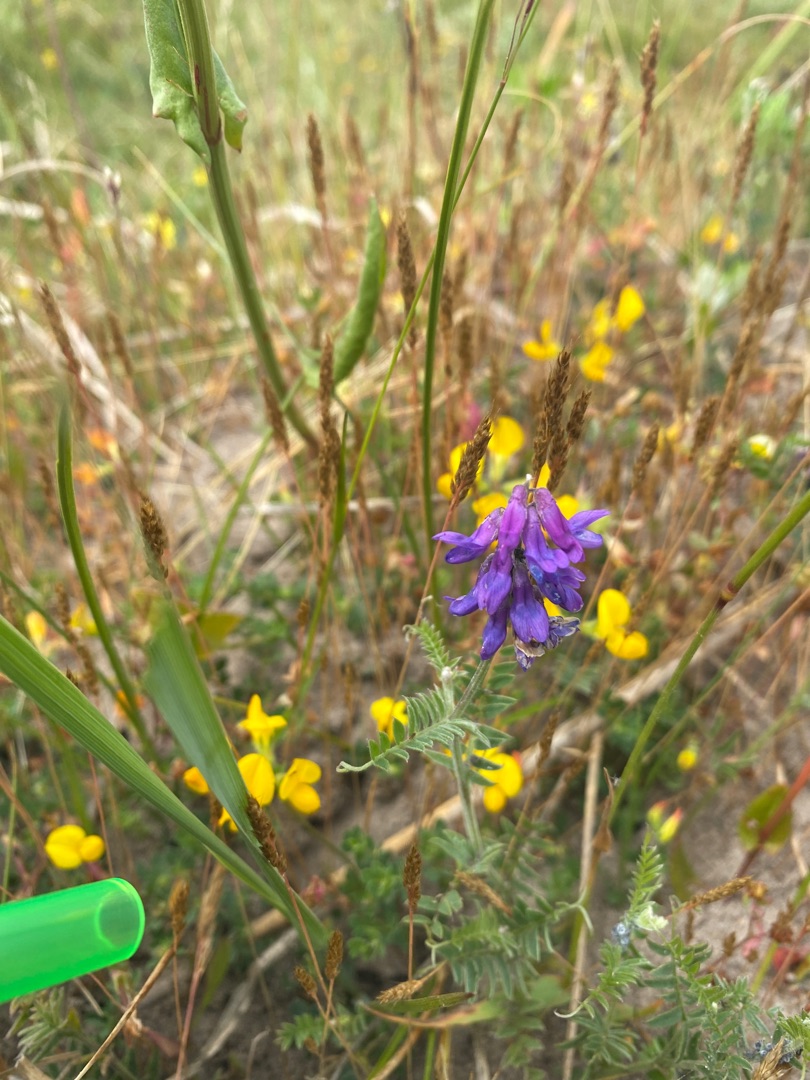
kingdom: Plantae
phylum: Tracheophyta
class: Magnoliopsida
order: Fabales
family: Fabaceae
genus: Vicia
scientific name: Vicia cracca
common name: Muse-vikke
